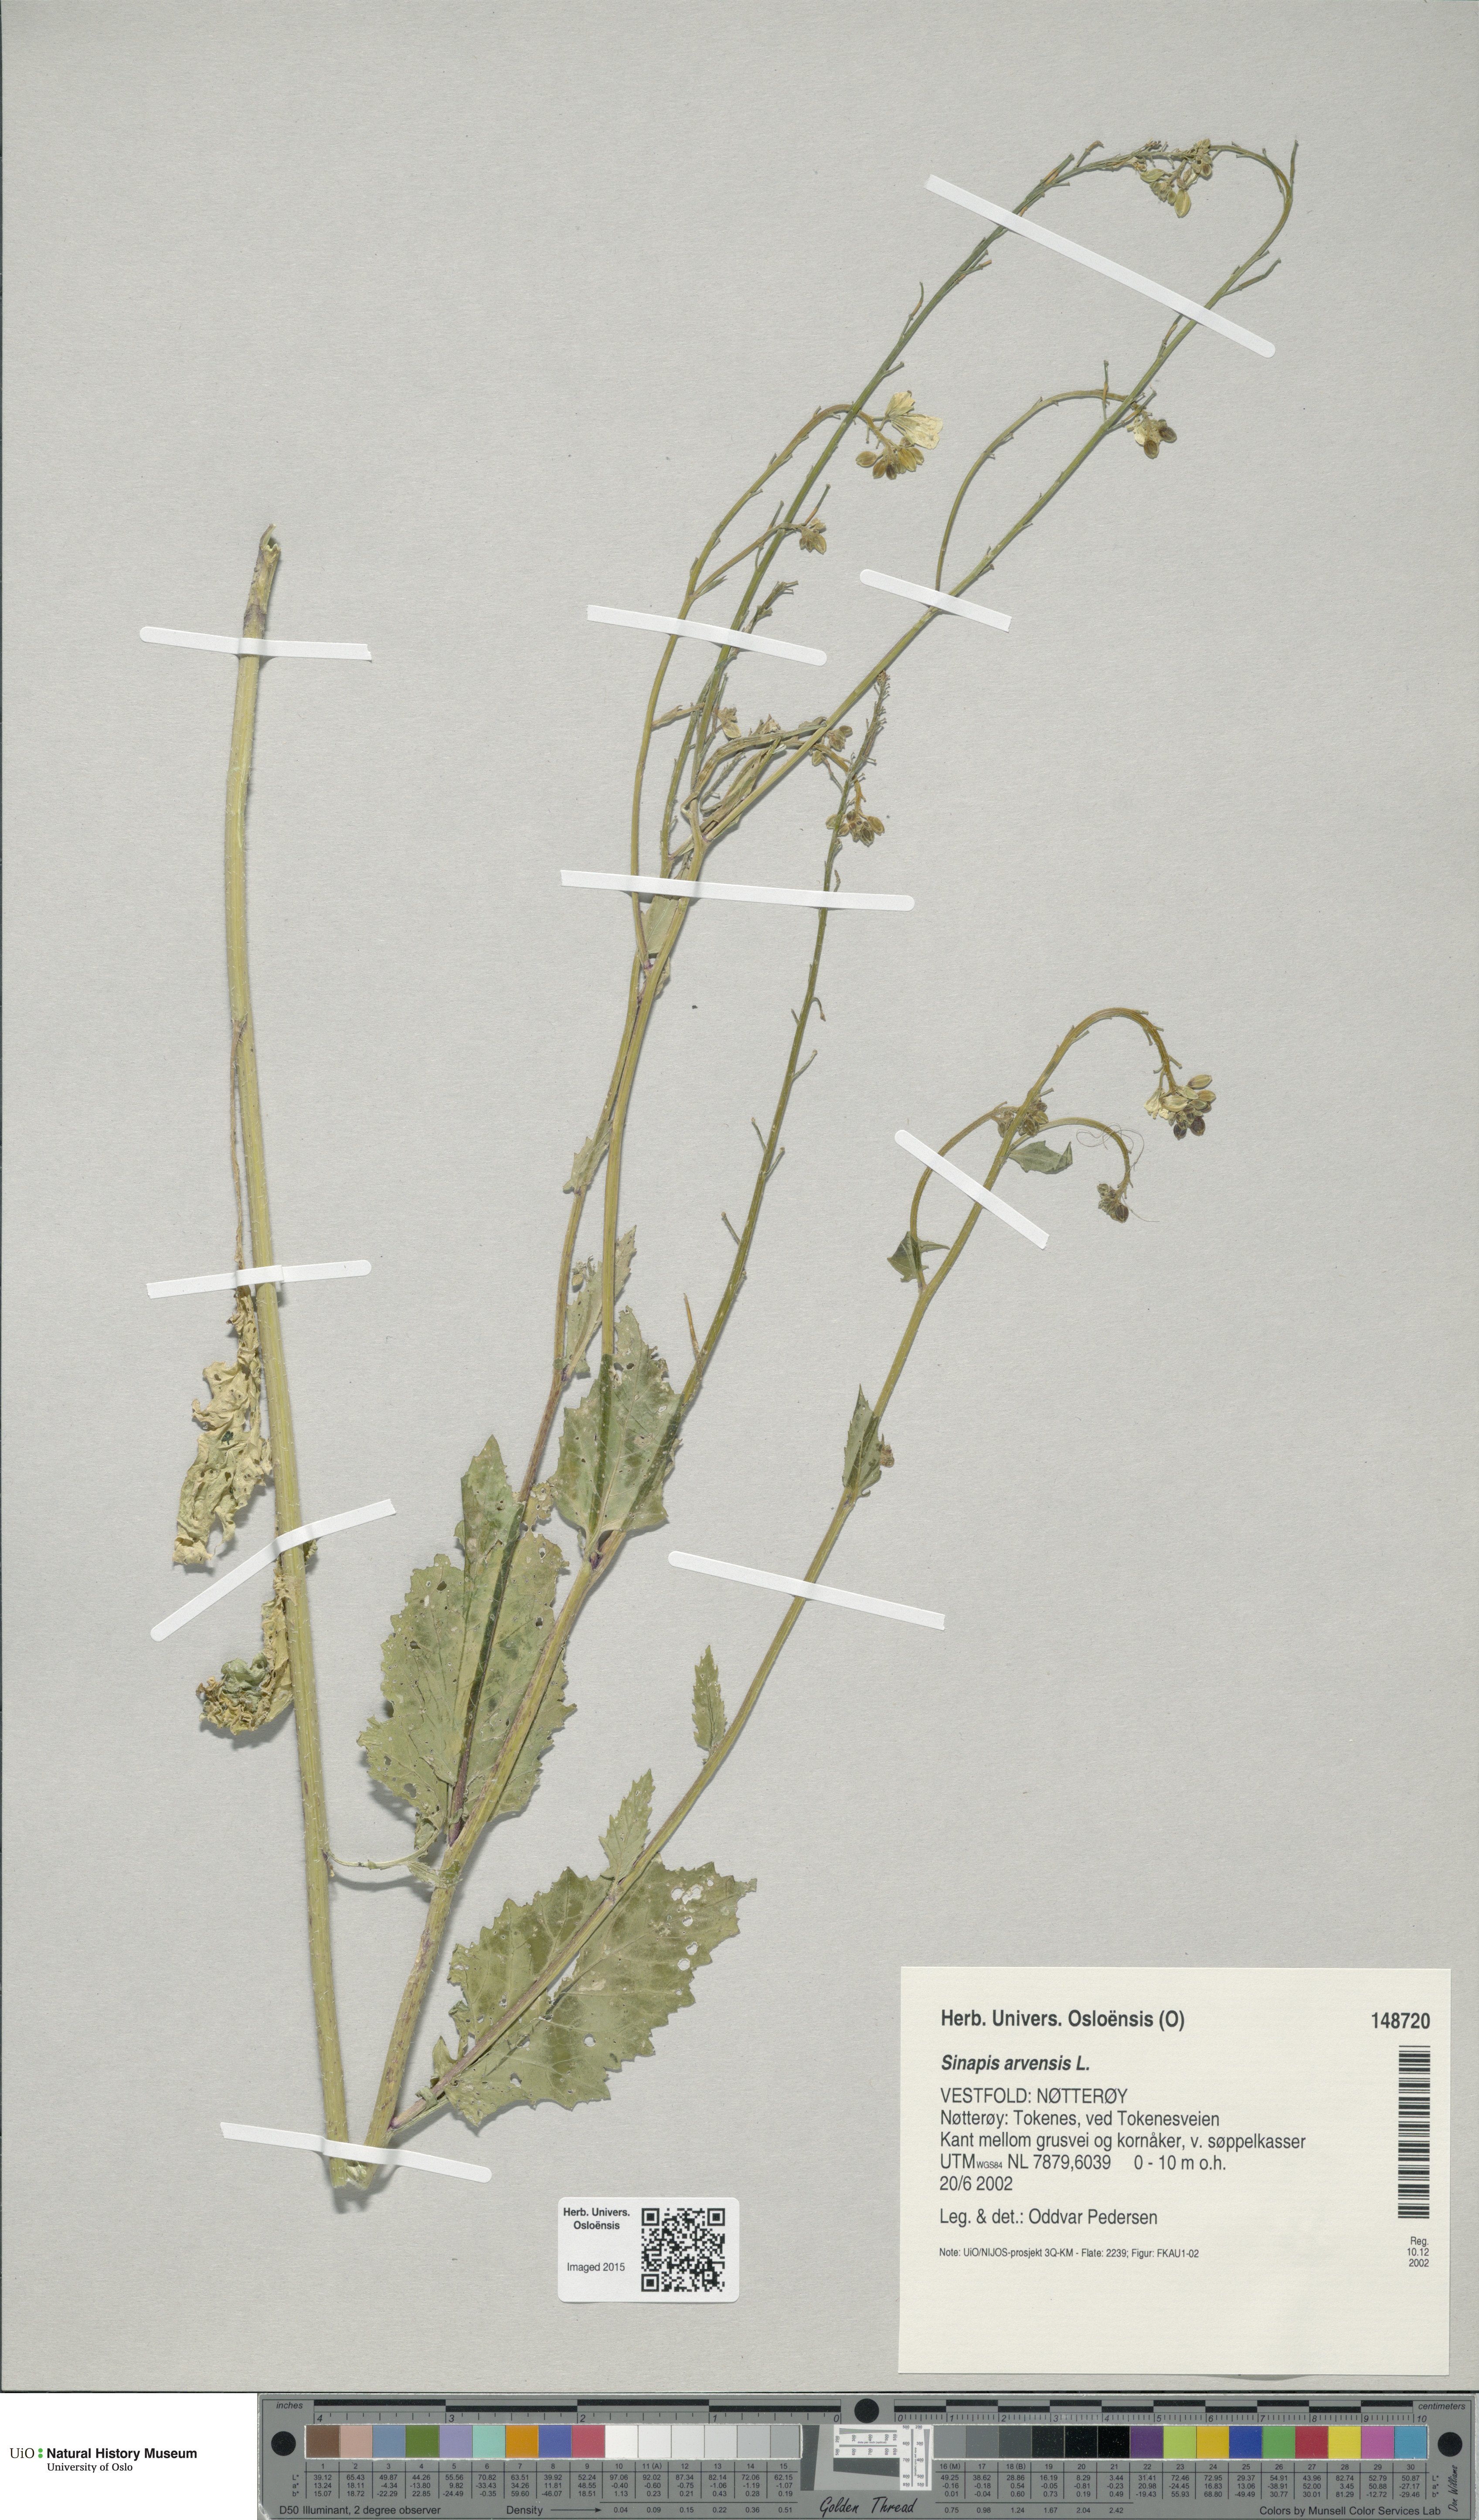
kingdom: Plantae
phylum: Tracheophyta
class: Magnoliopsida
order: Brassicales
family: Brassicaceae
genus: Sinapis
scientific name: Sinapis arvensis
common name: Charlock
